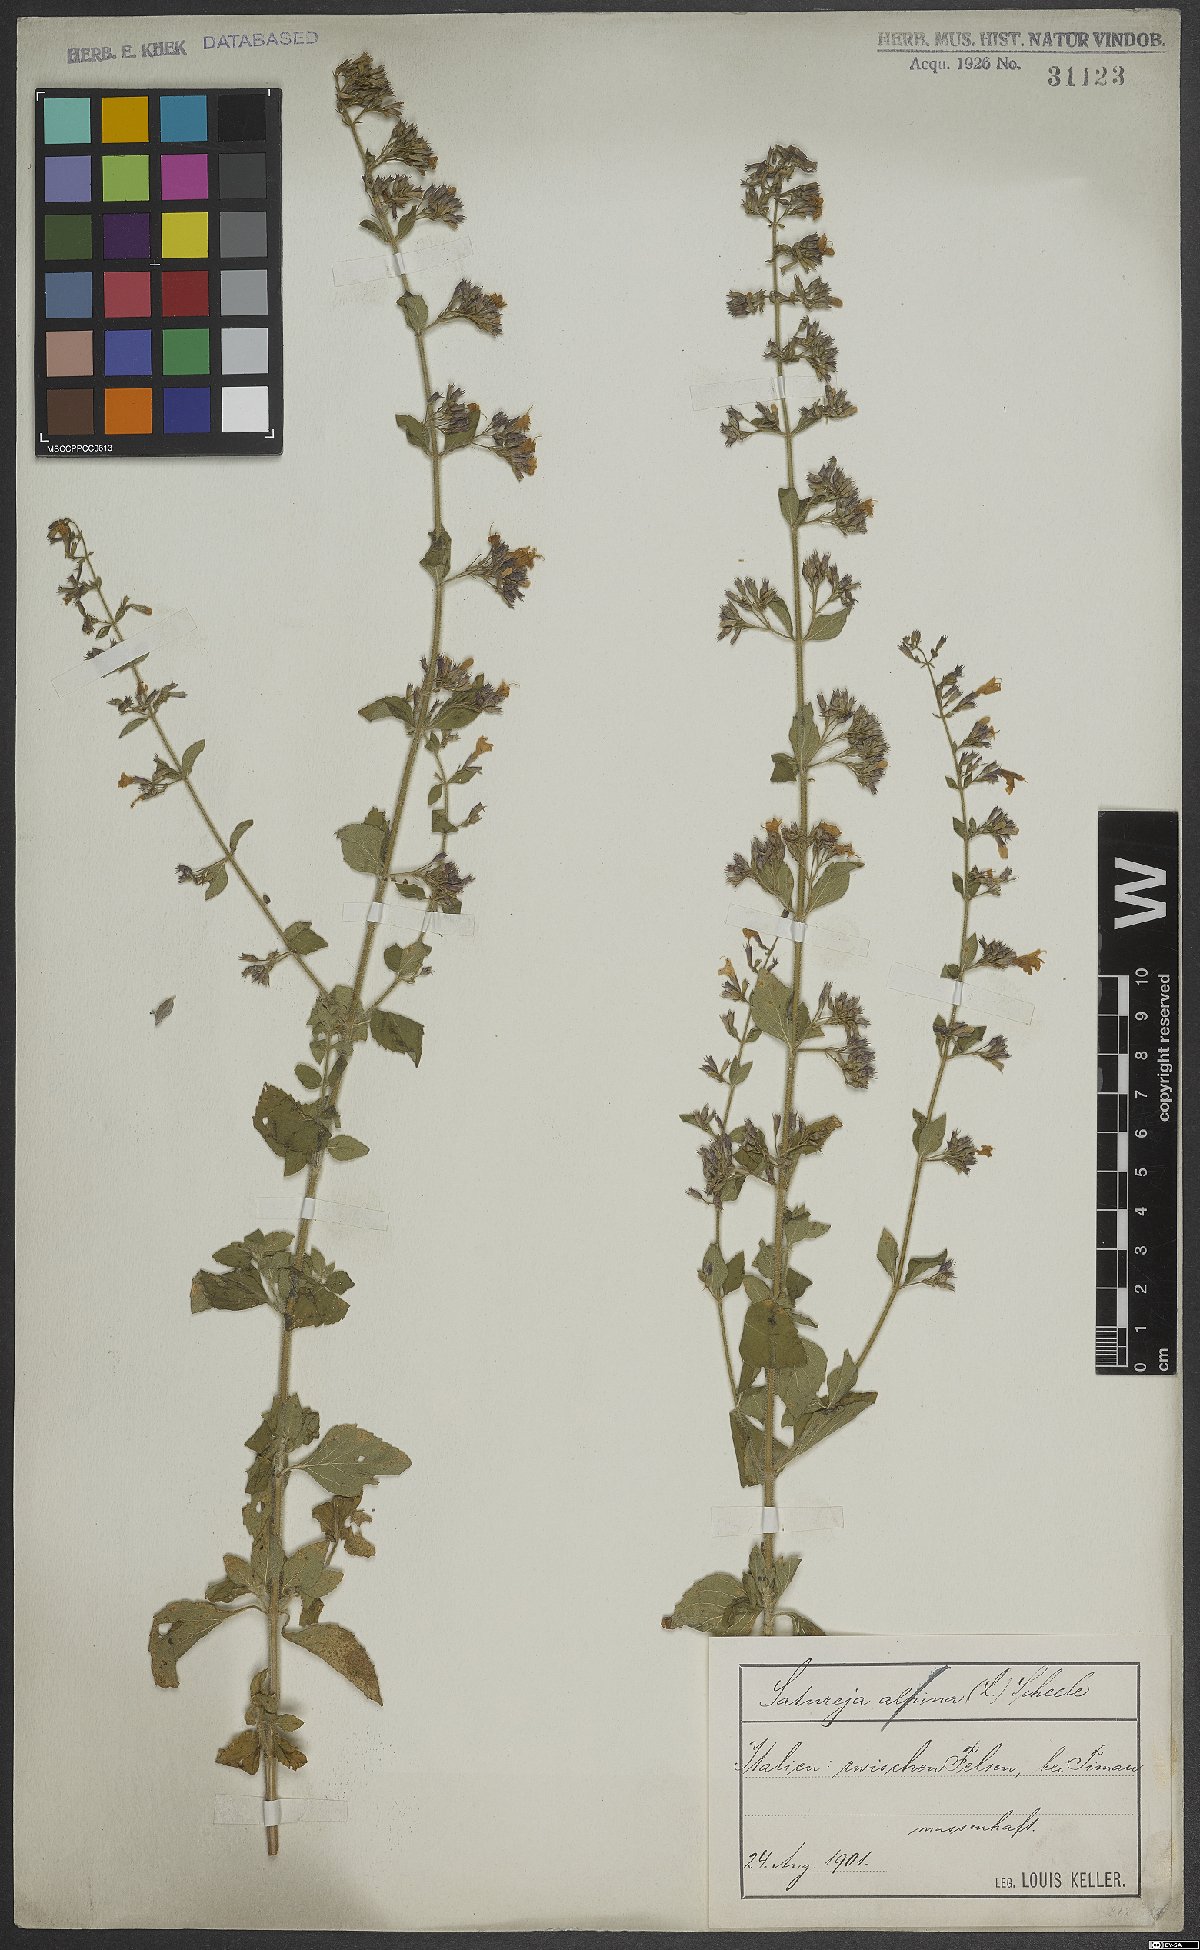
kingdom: Plantae
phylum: Tracheophyta
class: Magnoliopsida
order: Lamiales
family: Lamiaceae
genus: Calamintha
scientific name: Calamintha
